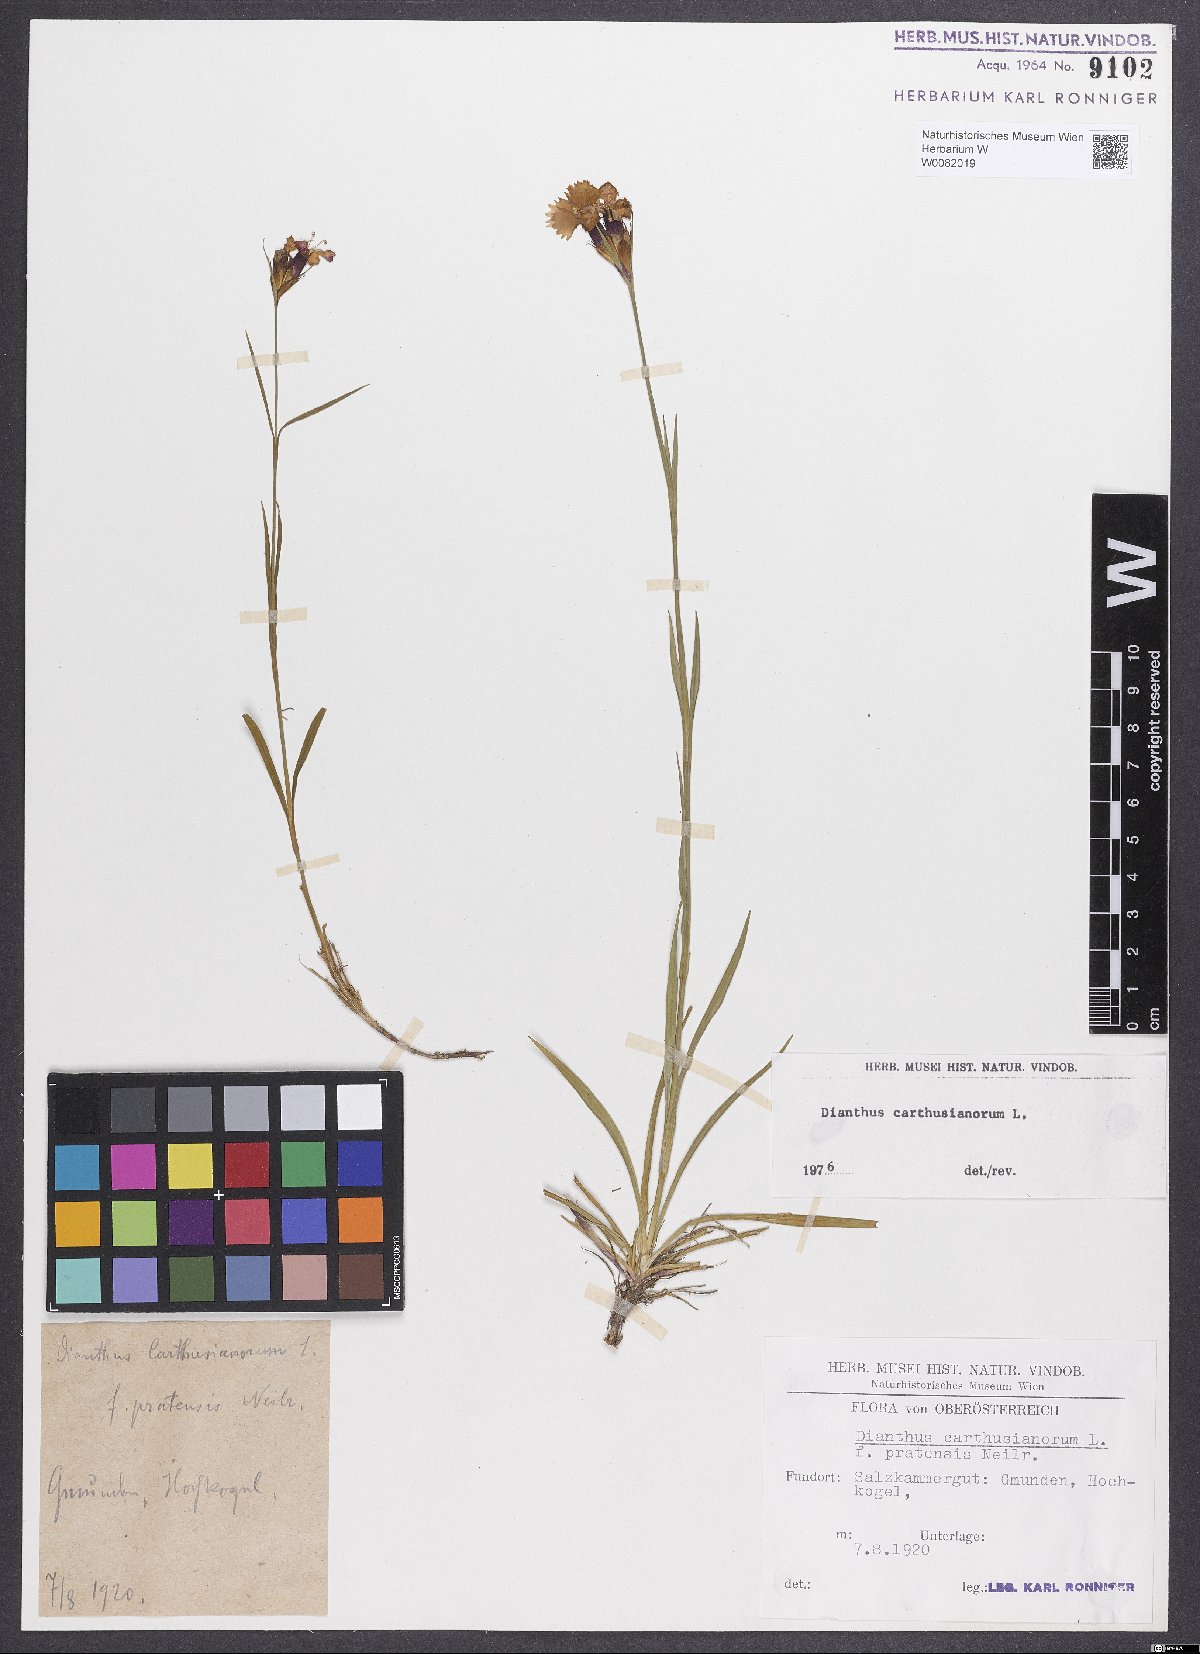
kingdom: Plantae
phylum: Tracheophyta
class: Magnoliopsida
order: Caryophyllales
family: Caryophyllaceae
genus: Dianthus
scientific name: Dianthus carthusianorum
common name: Carthusian pink
